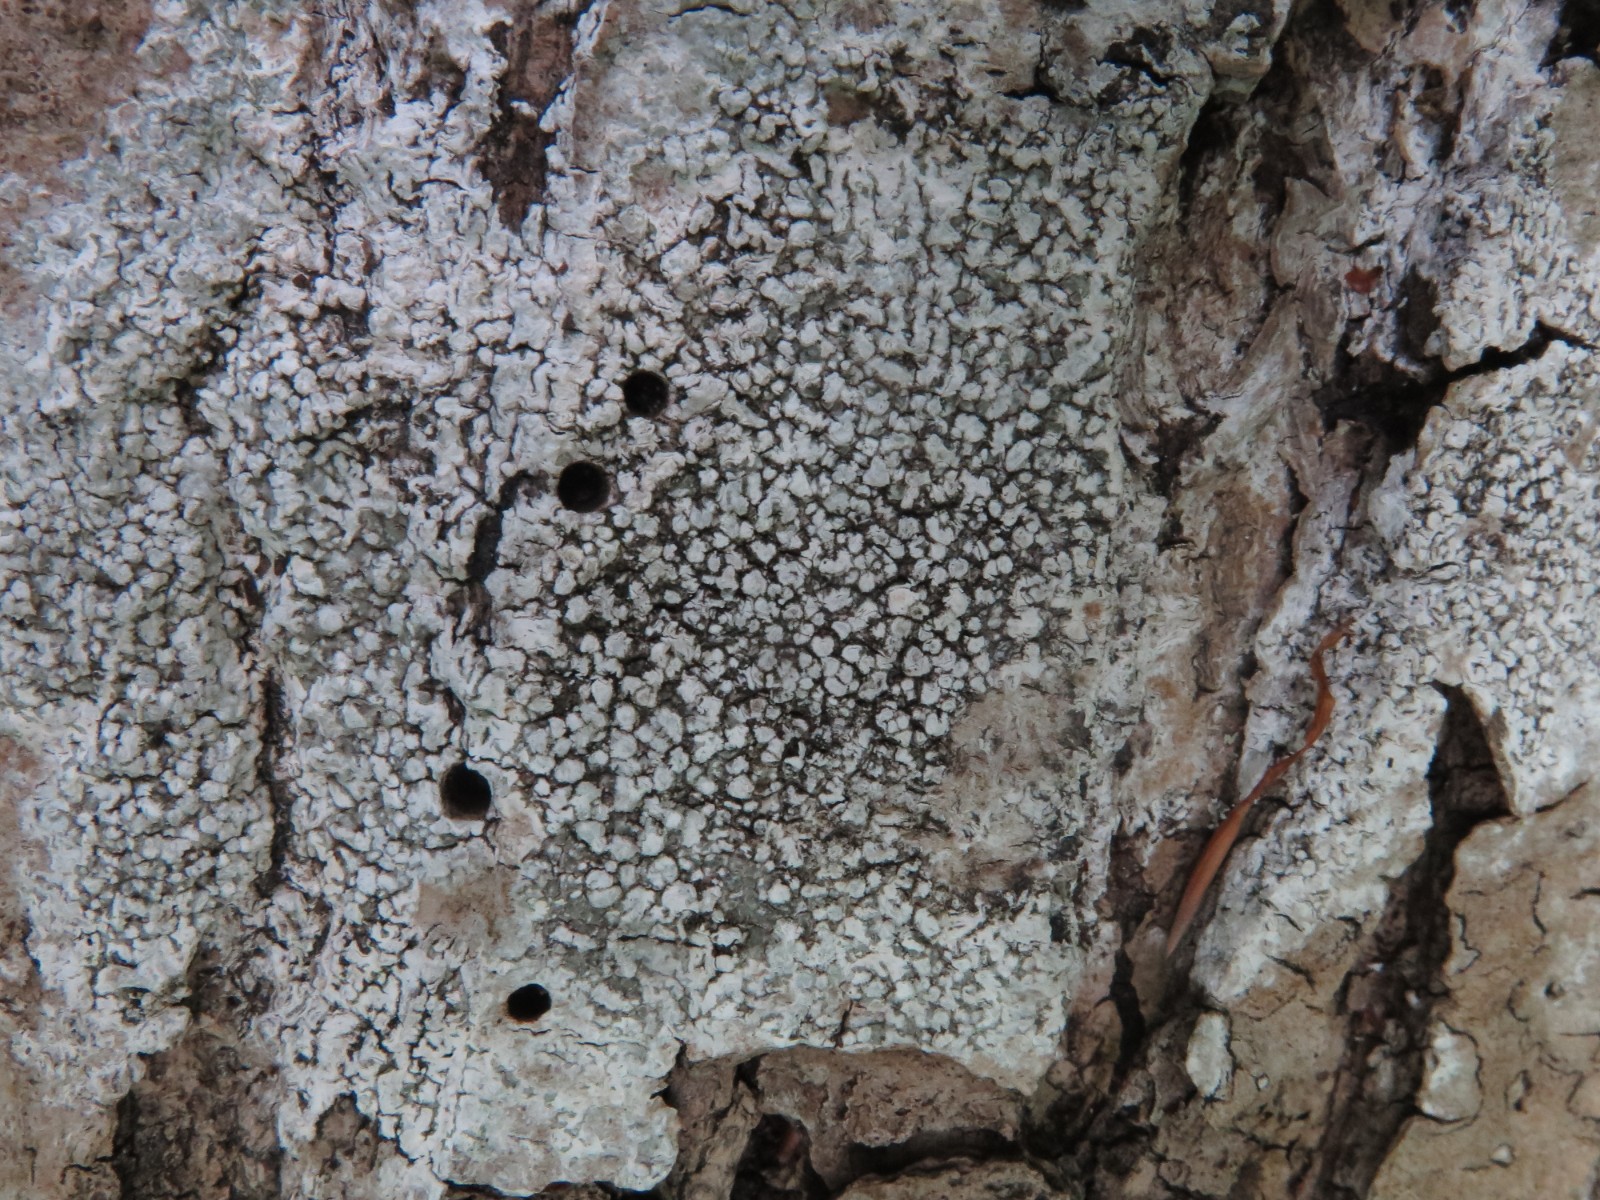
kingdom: Fungi
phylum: Ascomycota
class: Lecanoromycetes
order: Pertusariales
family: Pertusariaceae
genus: Lepra
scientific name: Lepra albescens
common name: hvidmelet prikvortelav
